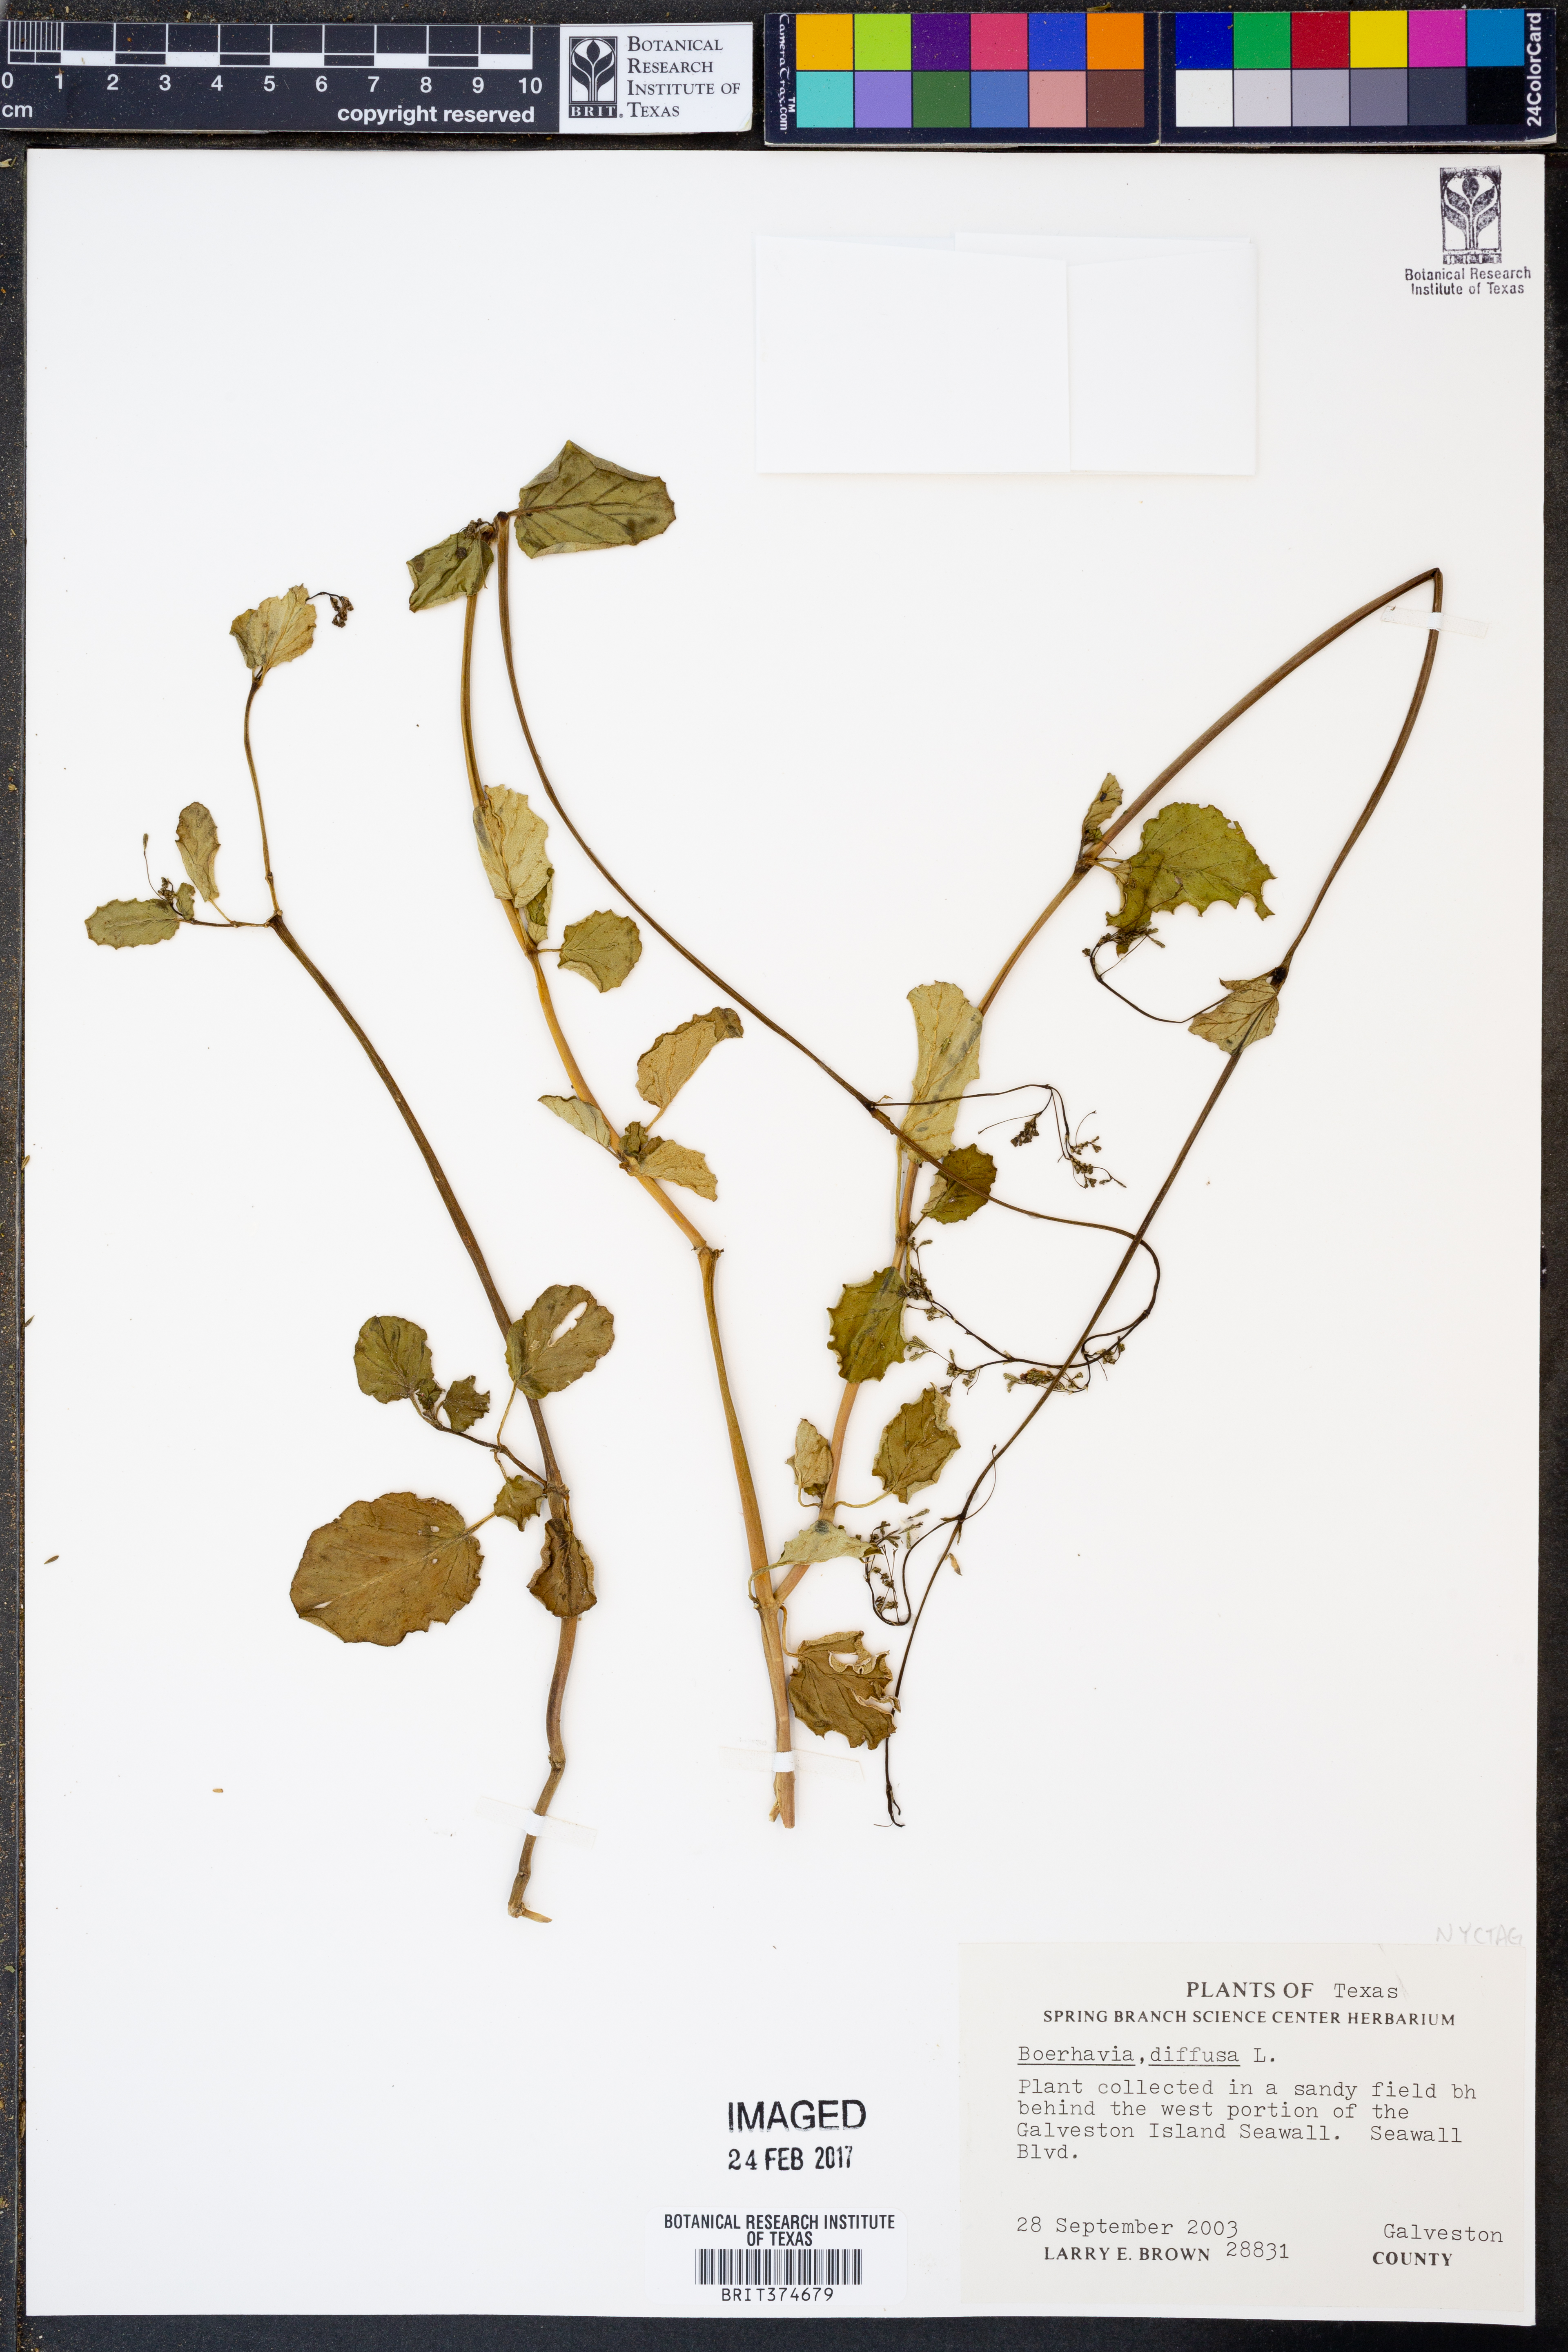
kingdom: Plantae
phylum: Tracheophyta
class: Magnoliopsida
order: Caryophyllales
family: Nyctaginaceae
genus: Boerhavia
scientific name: Boerhavia diffusa
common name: Red spiderling
